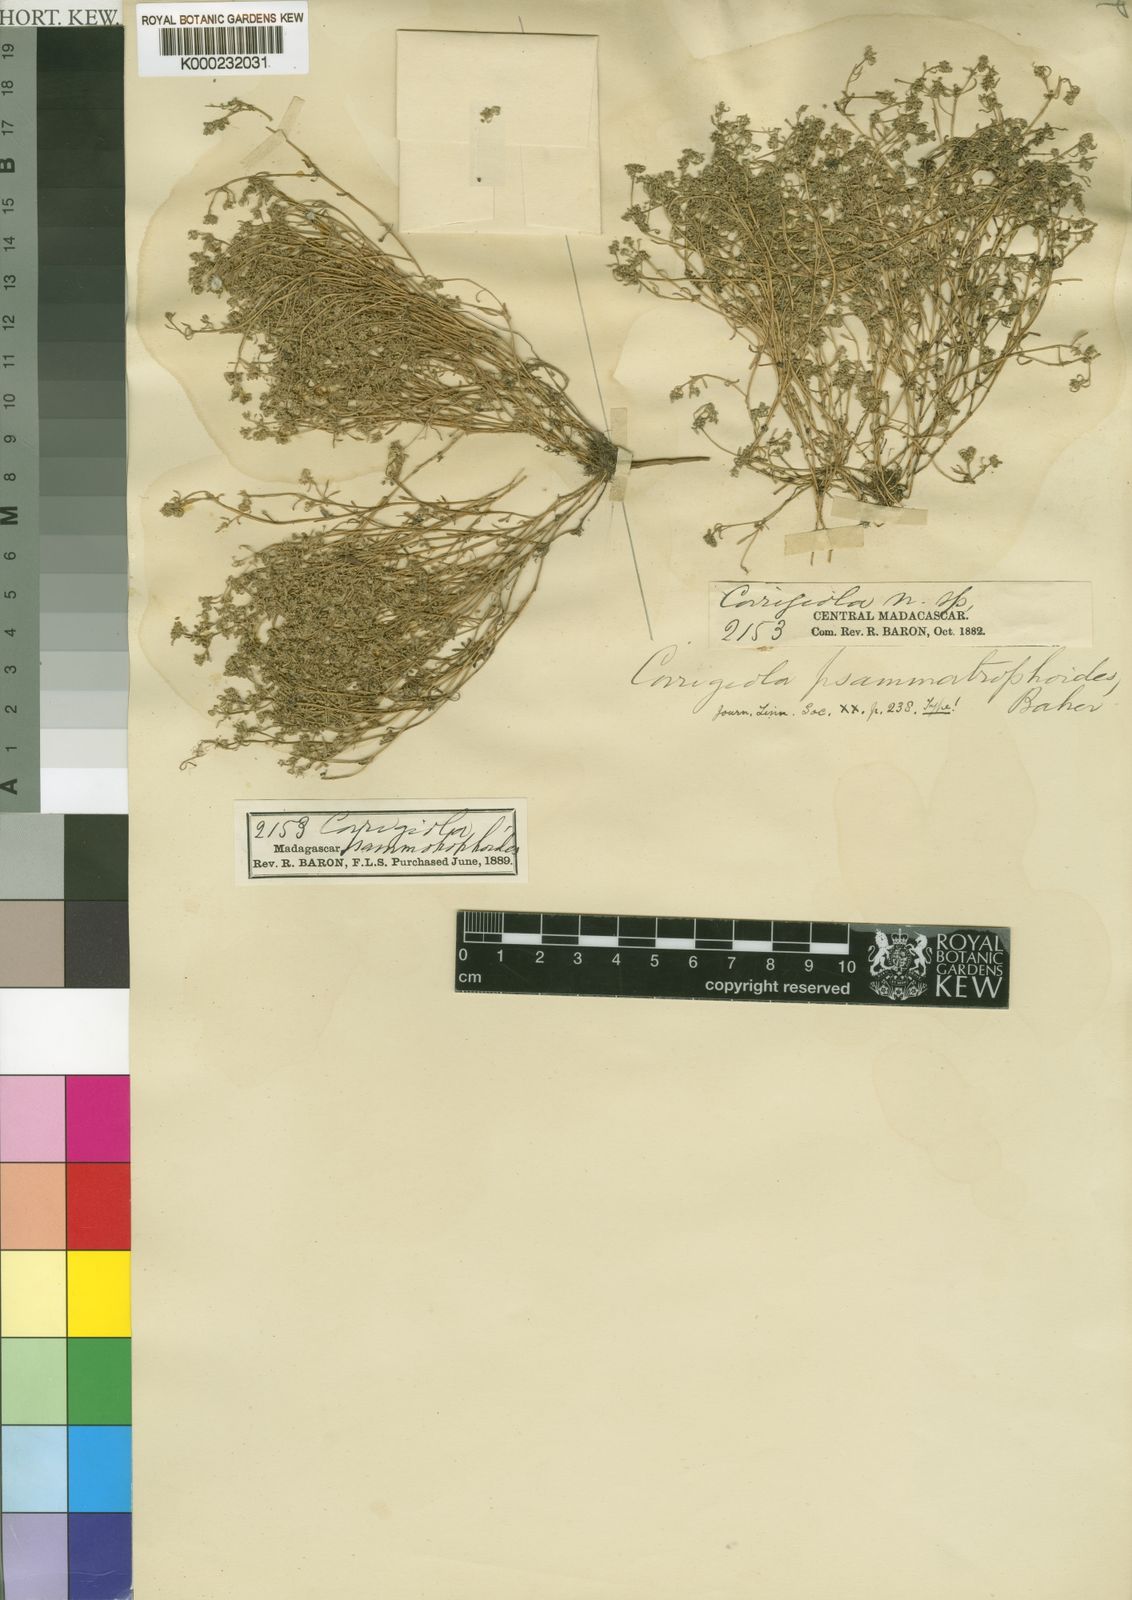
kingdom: Plantae
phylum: Tracheophyta
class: Magnoliopsida
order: Caryophyllales
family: Caryophyllaceae
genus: Corrigiola
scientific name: Corrigiola litoralis
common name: Strapwort
